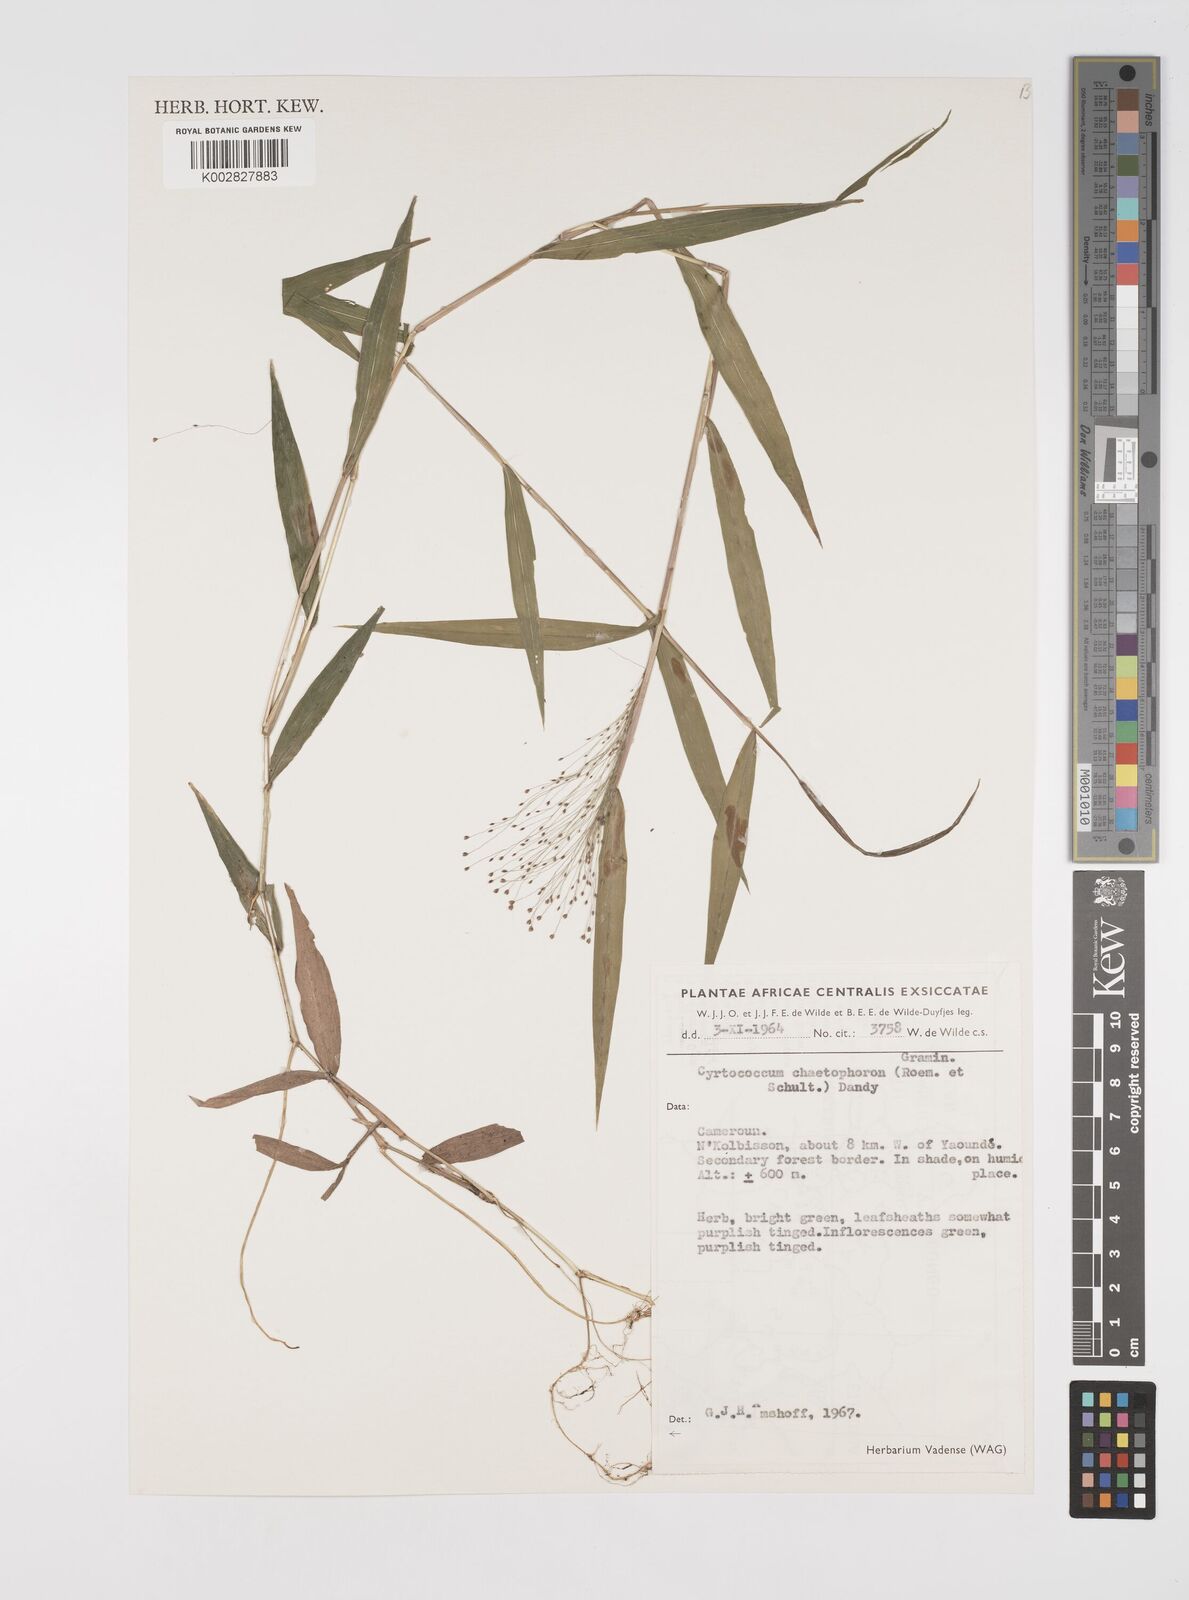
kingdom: Plantae
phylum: Tracheophyta
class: Liliopsida
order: Poales
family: Poaceae
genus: Cyrtococcum
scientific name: Cyrtococcum chaetophoron
